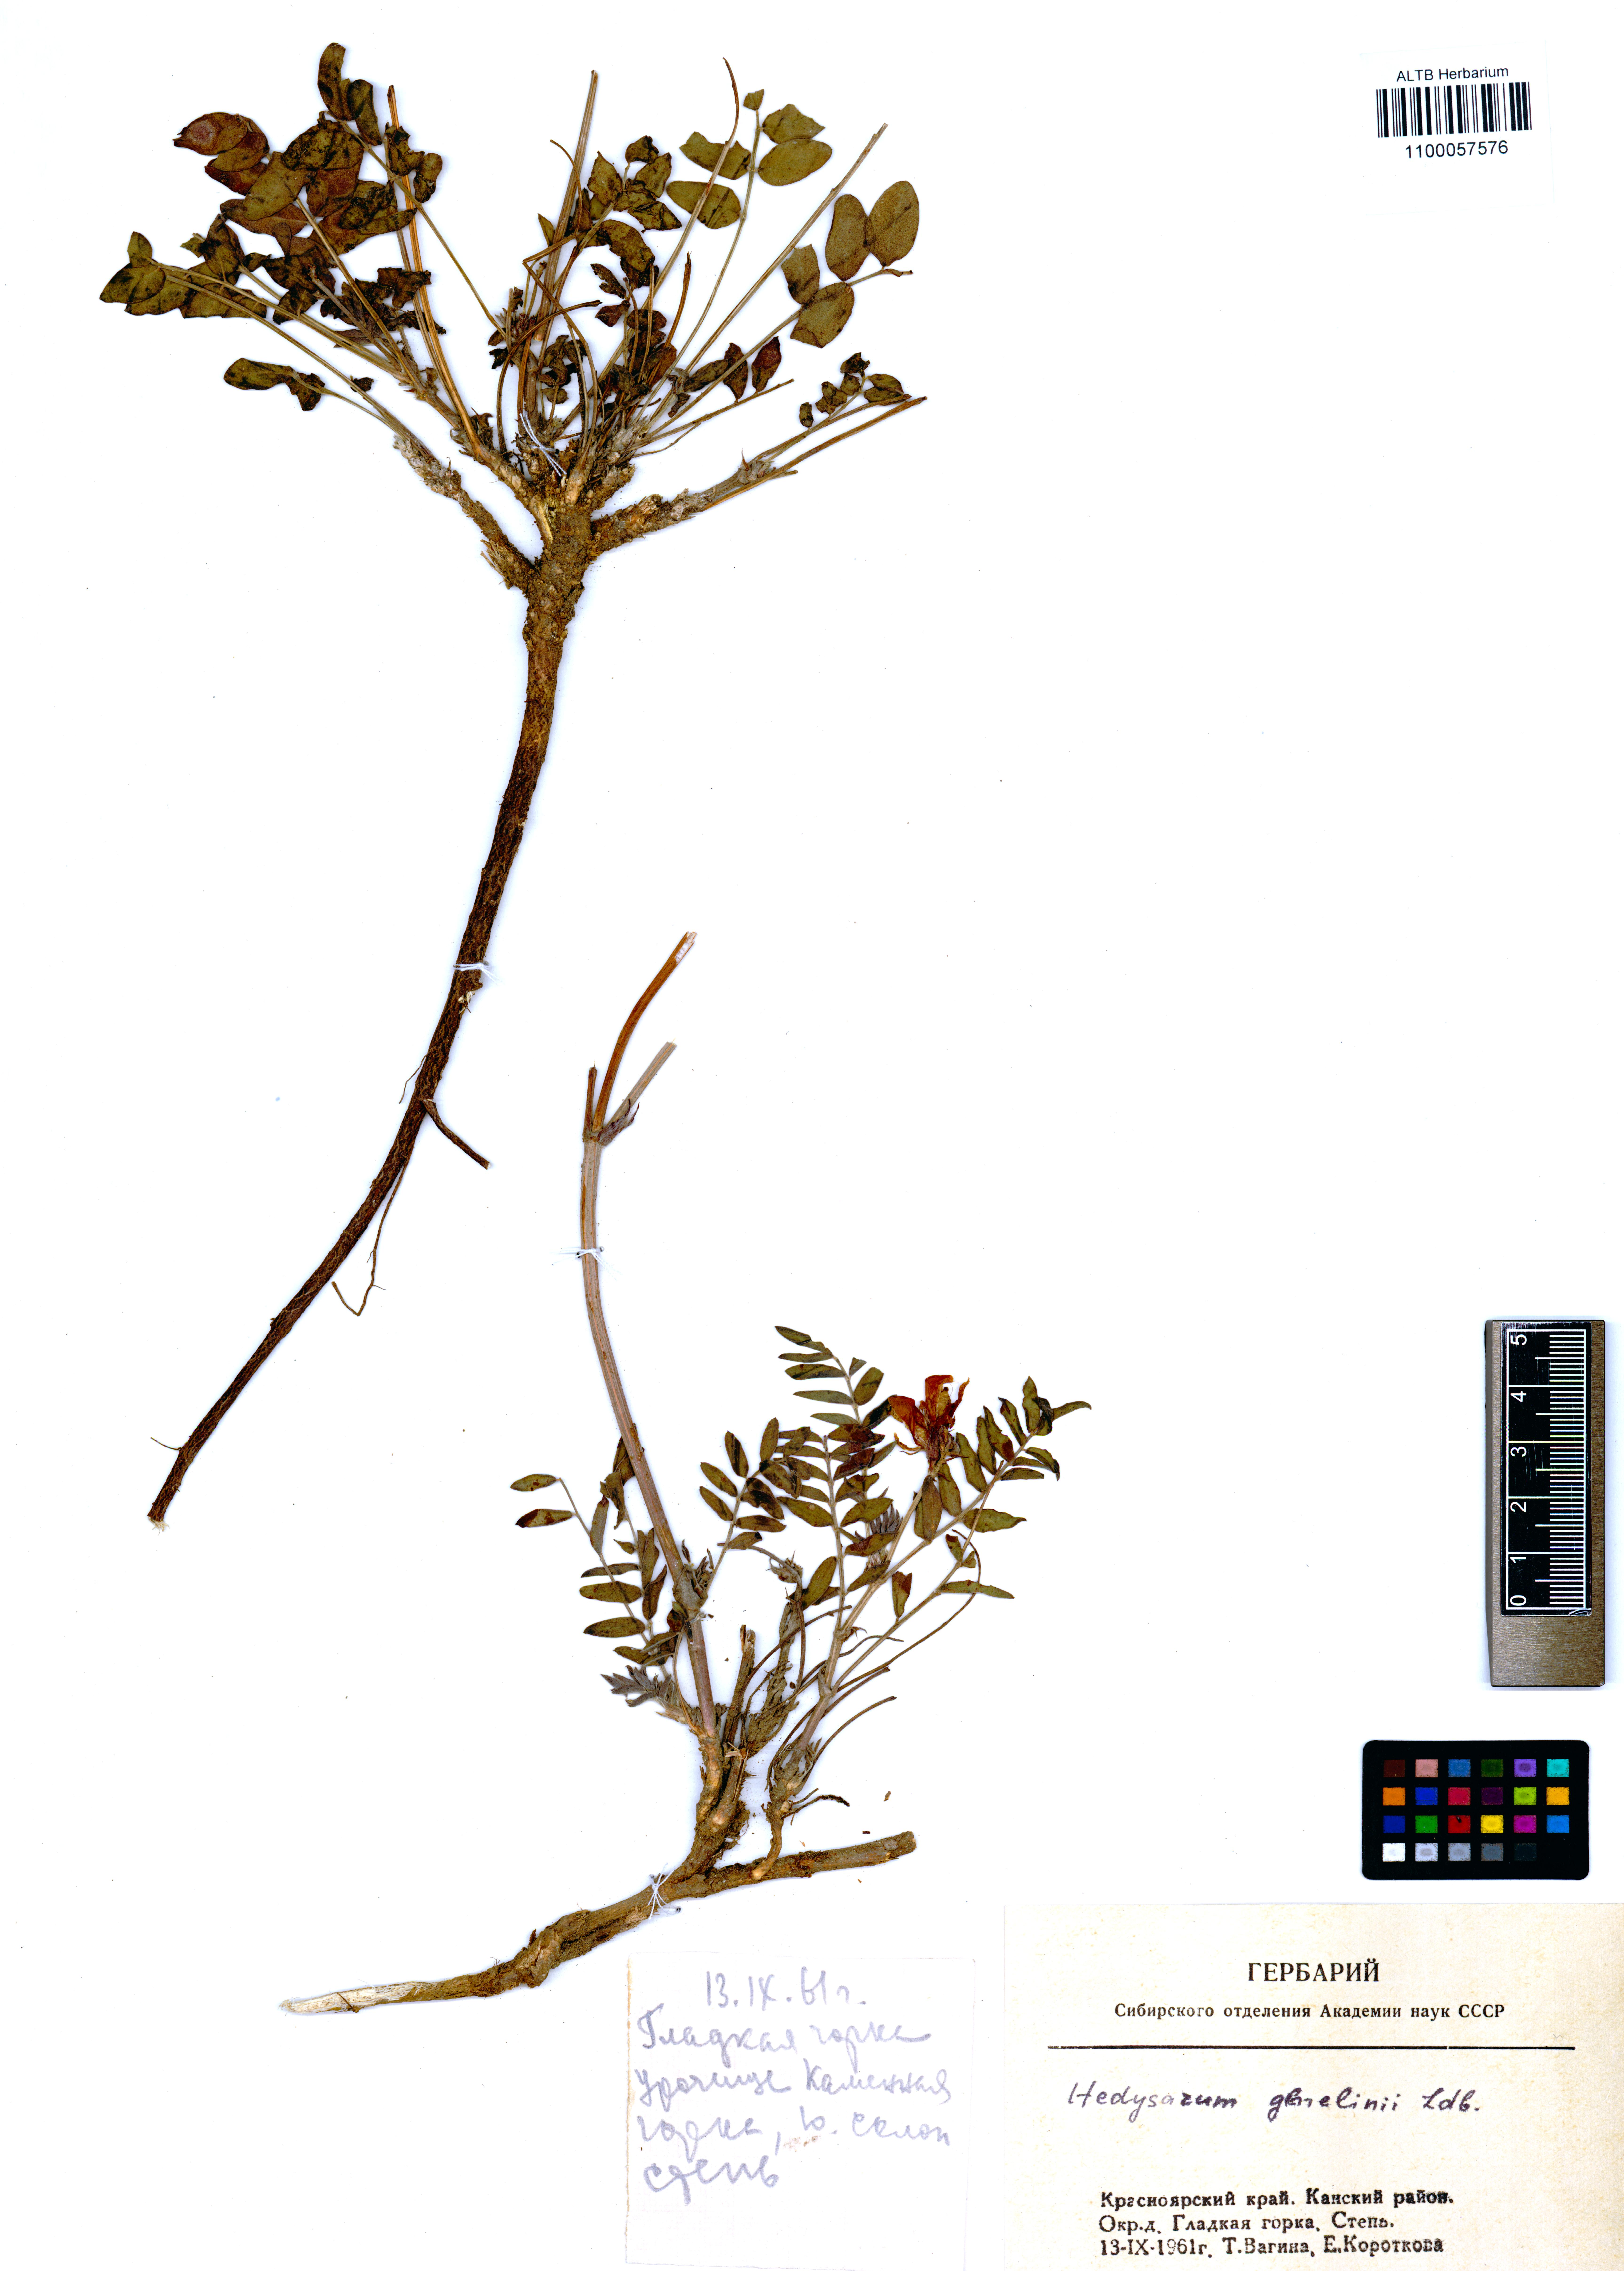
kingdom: Plantae
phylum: Tracheophyta
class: Magnoliopsida
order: Fabales
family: Fabaceae
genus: Hedysarum
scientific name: Hedysarum gmelinii
